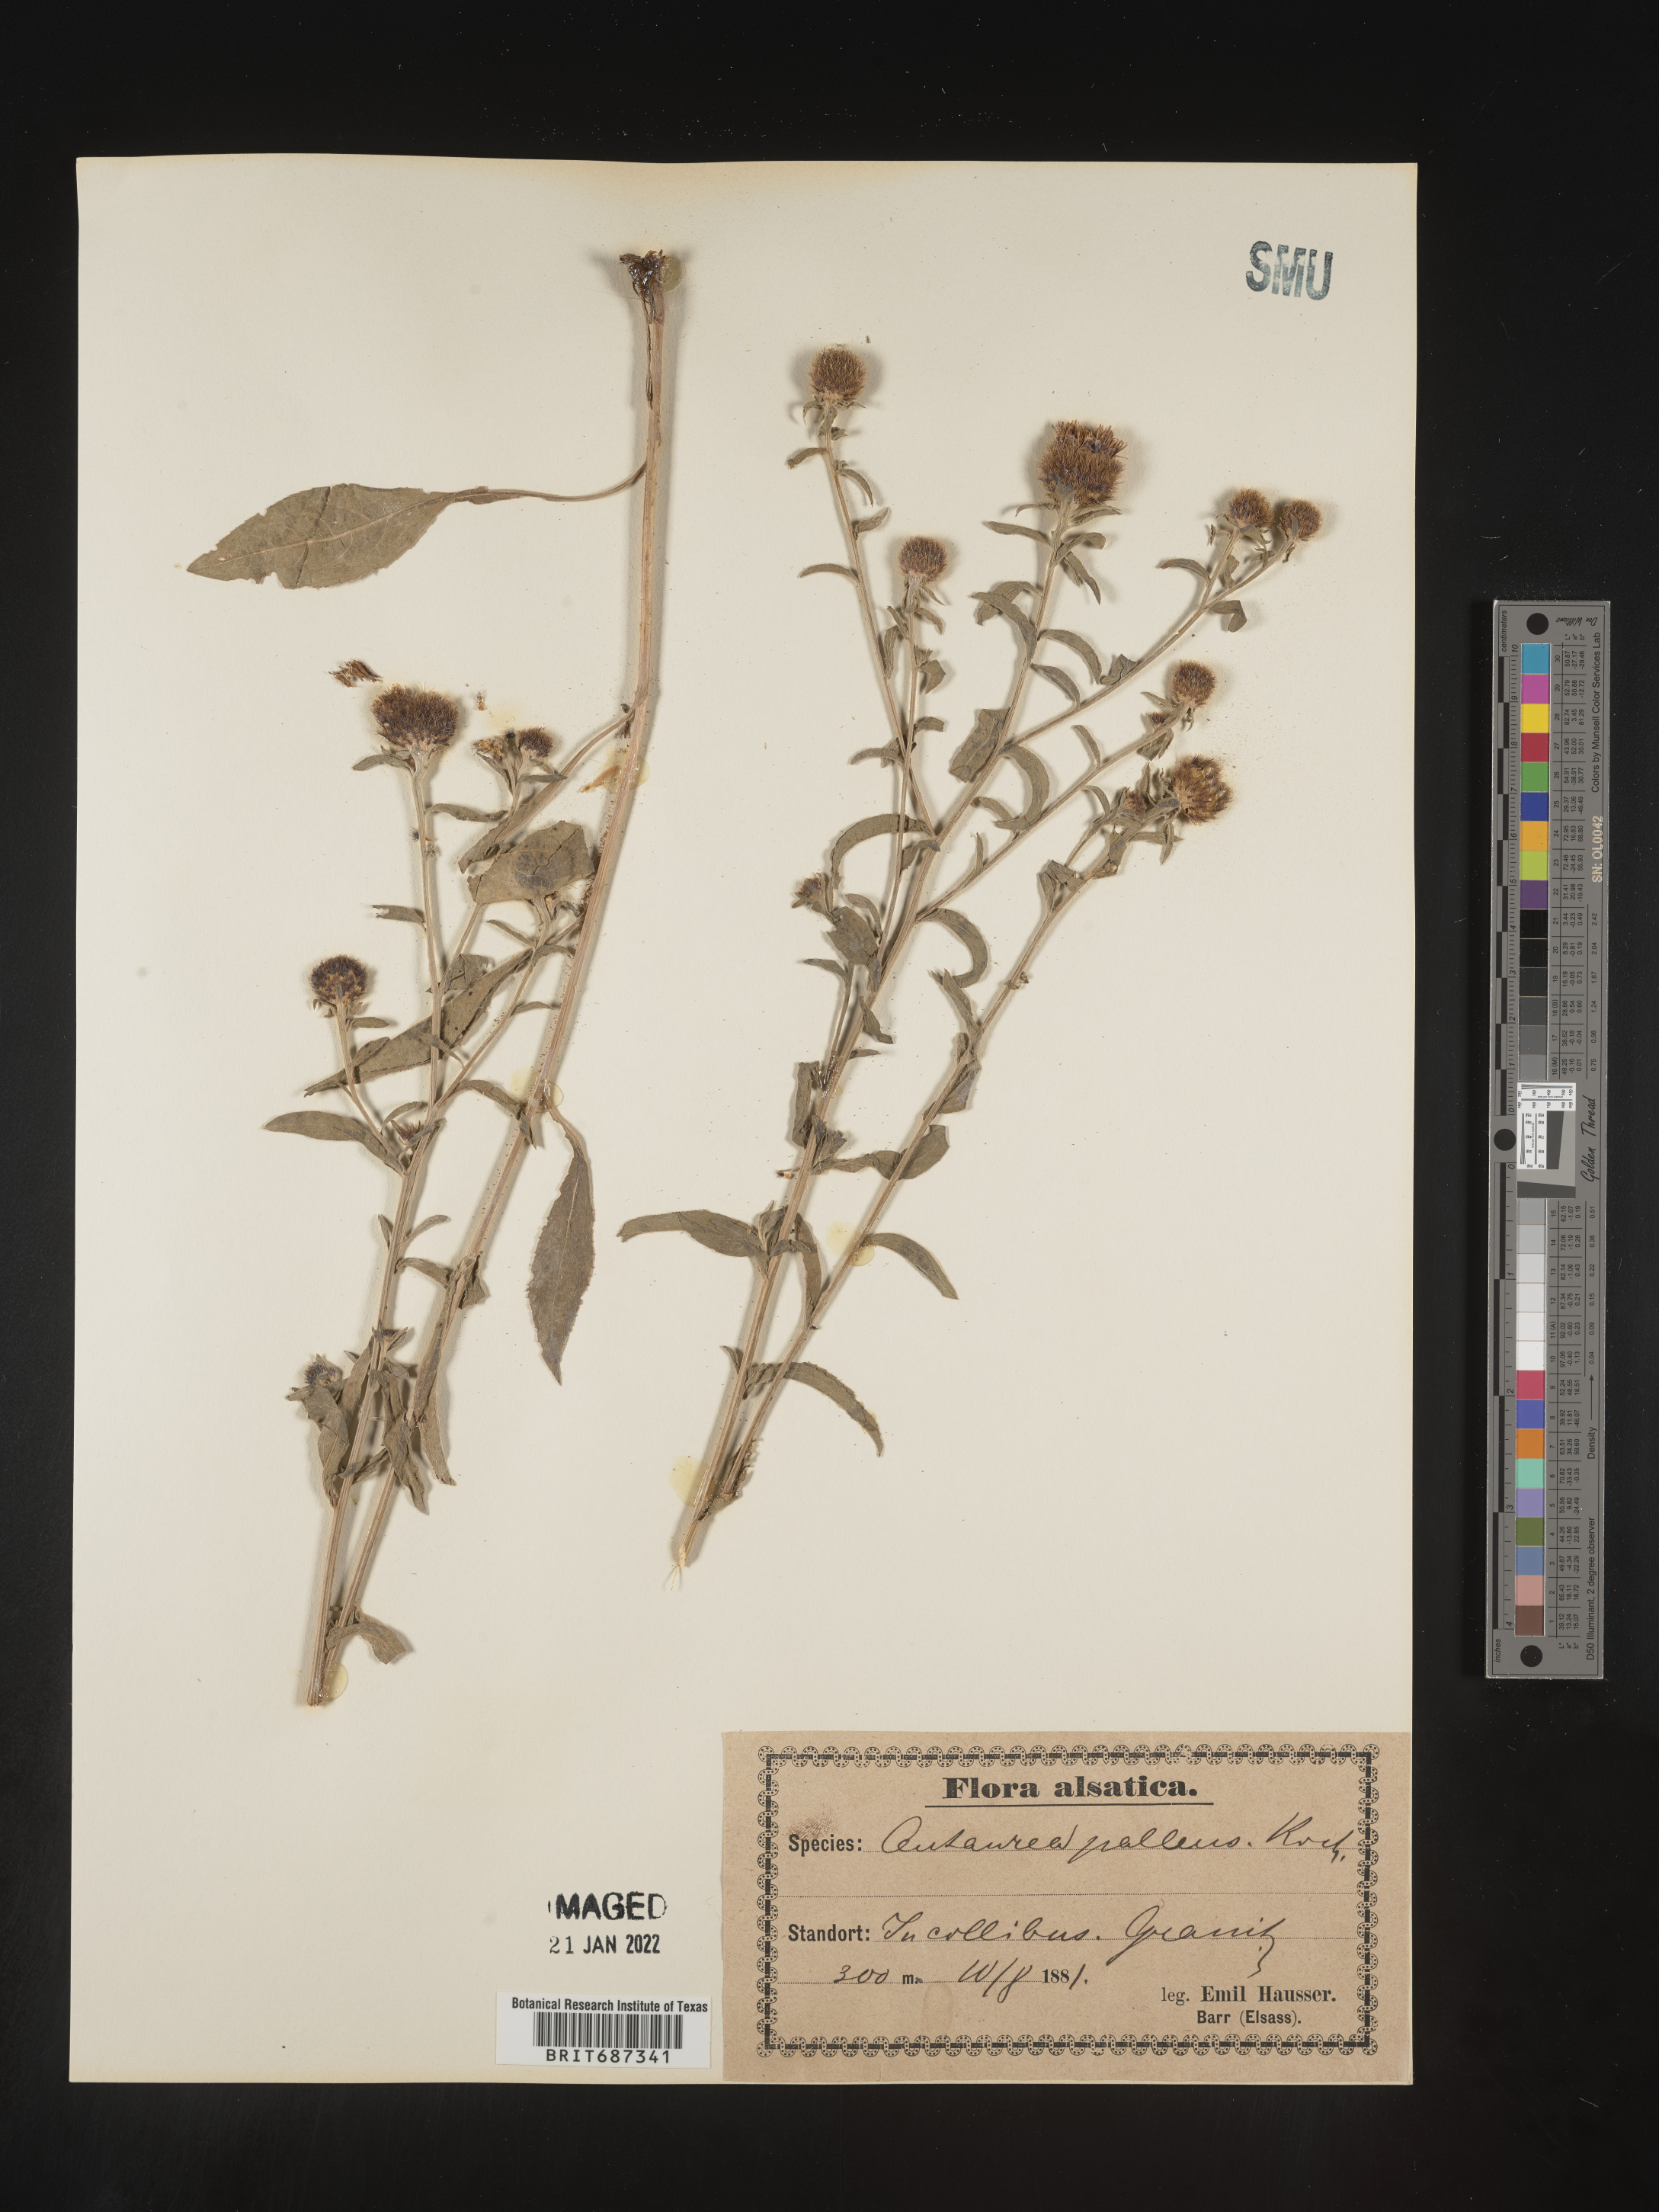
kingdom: Plantae
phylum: Tracheophyta
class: Magnoliopsida
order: Asterales
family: Asteraceae
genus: Centaurea
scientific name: Centaurea
